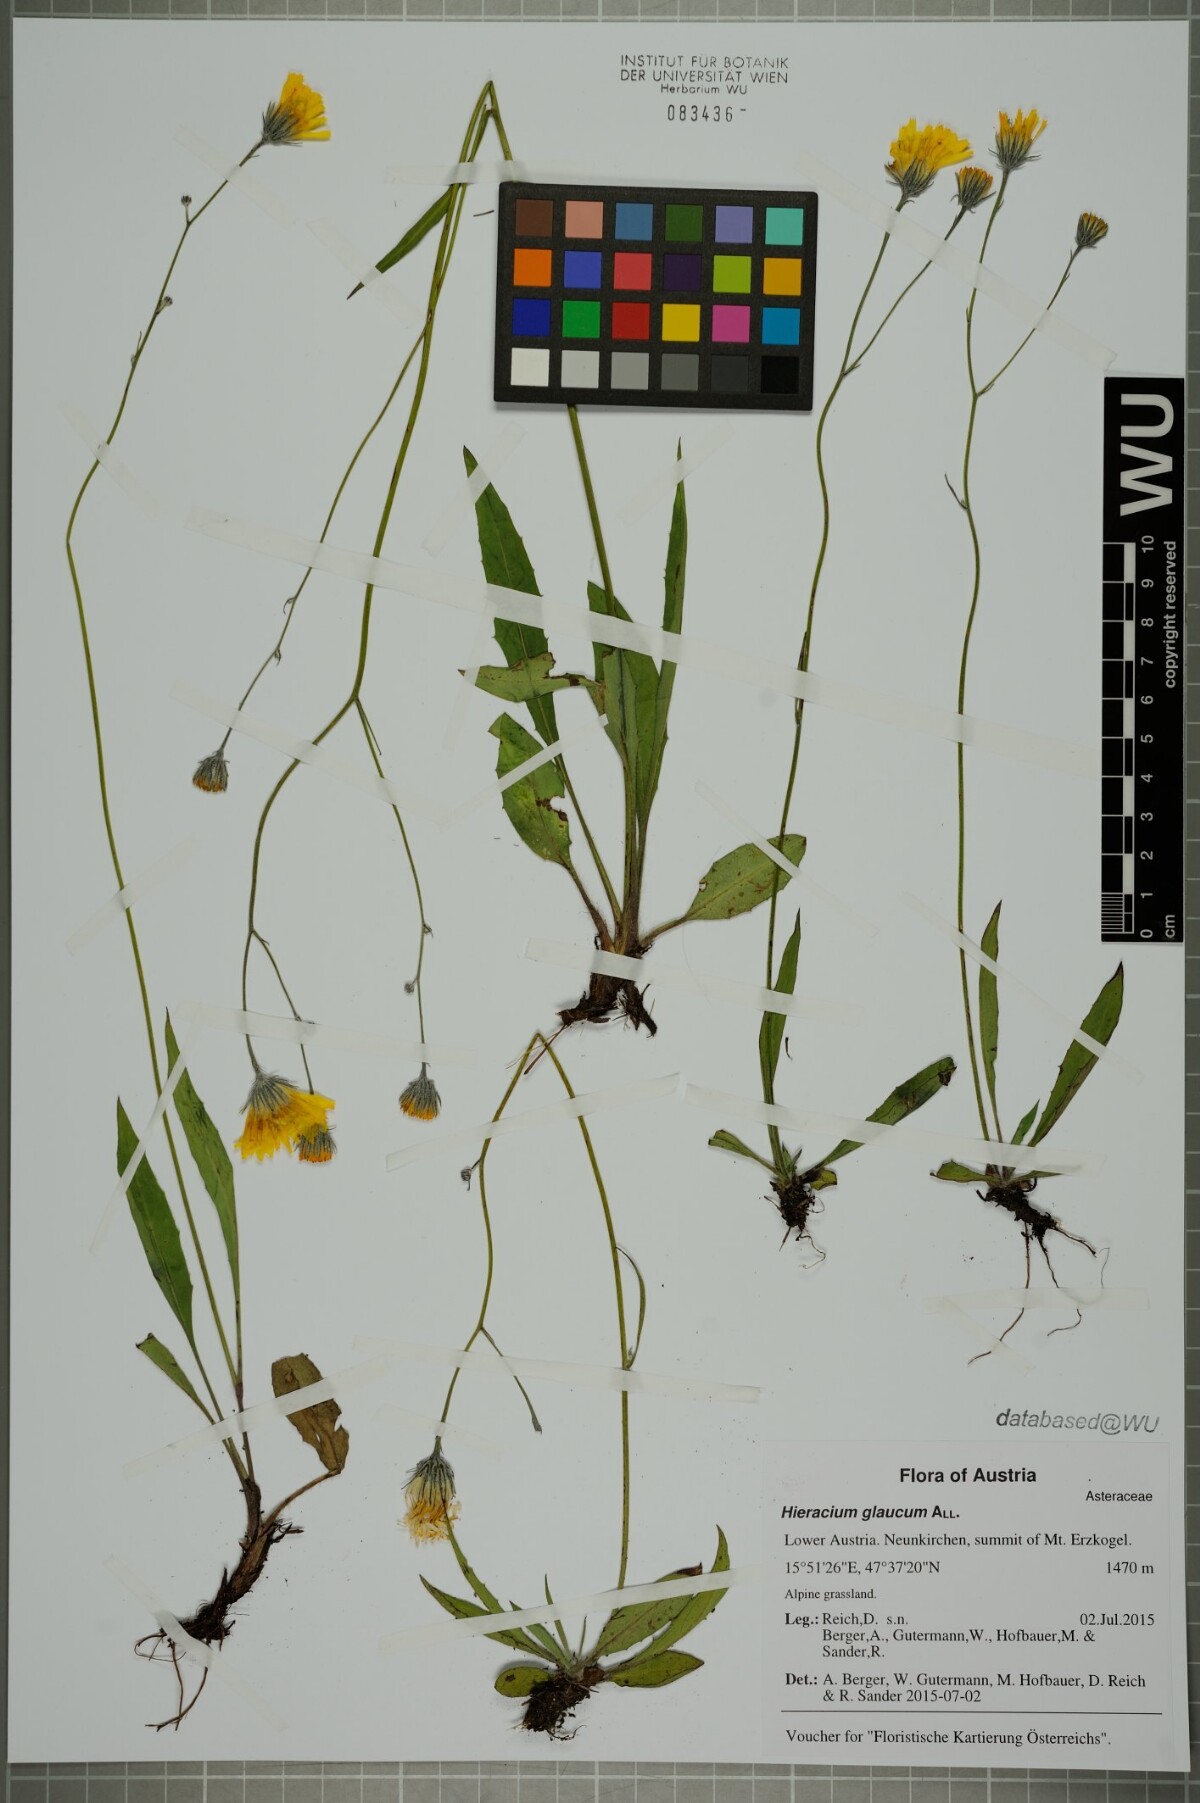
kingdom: Plantae
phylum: Tracheophyta
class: Magnoliopsida
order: Asterales
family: Asteraceae
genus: Hieracium
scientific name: Hieracium glaucum
